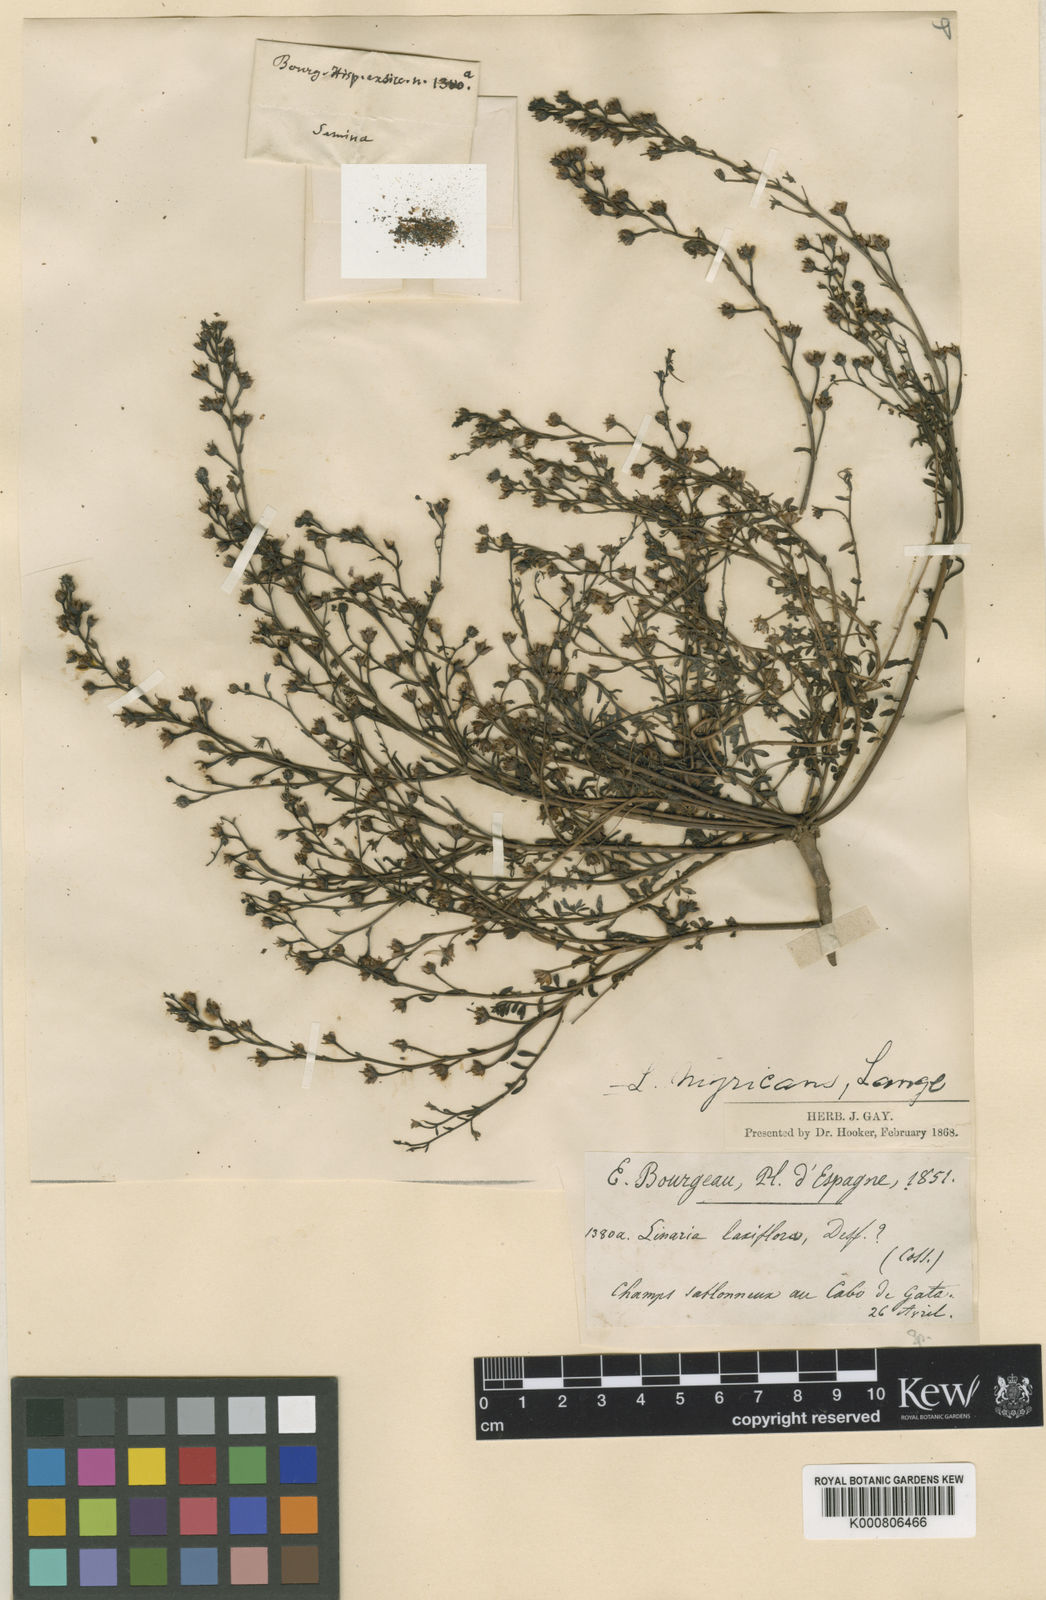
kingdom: Plantae
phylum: Tracheophyta
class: Magnoliopsida
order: Lamiales
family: Plantaginaceae
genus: Linaria
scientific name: Linaria nigricans
